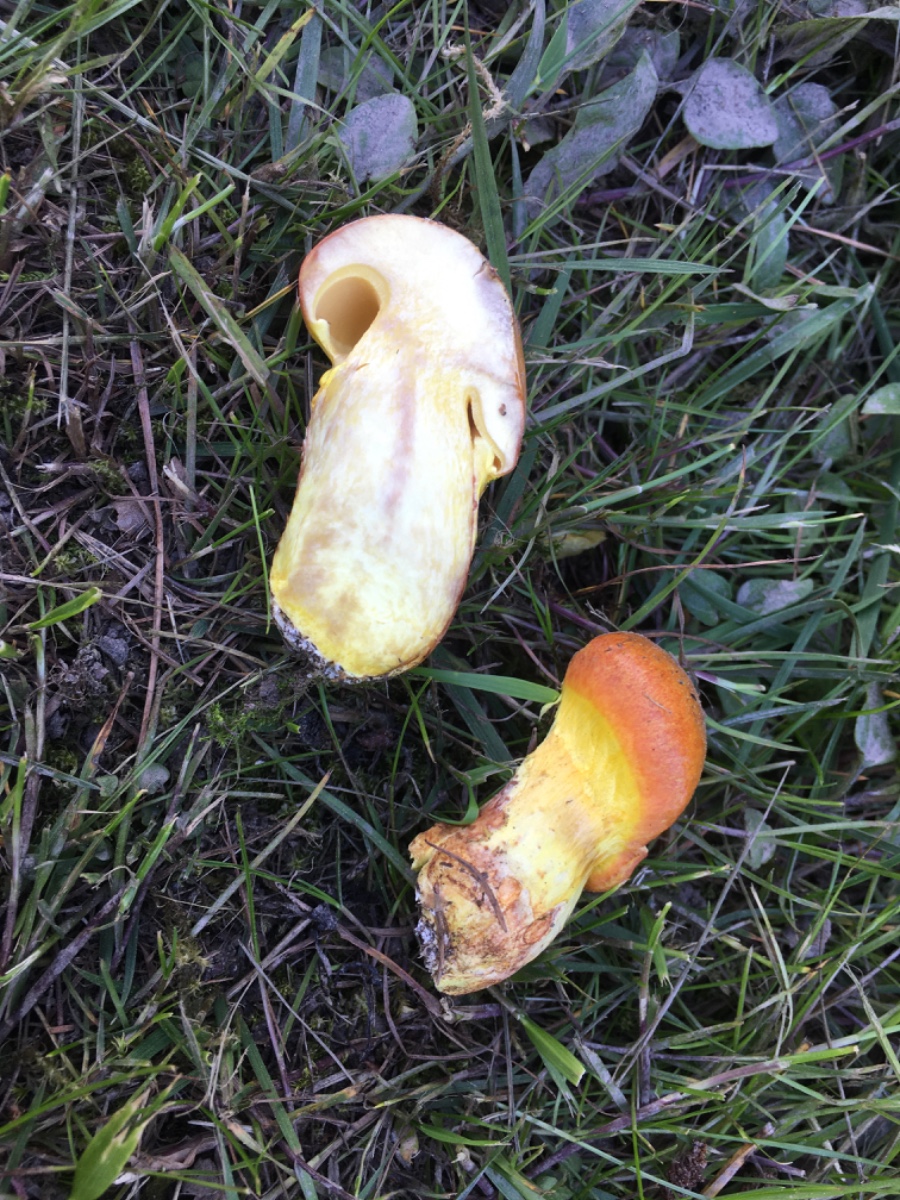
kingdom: Fungi
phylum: Basidiomycota
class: Agaricomycetes
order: Boletales
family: Suillaceae
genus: Suillus
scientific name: Suillus grevillei
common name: lærke-slimrørhat
